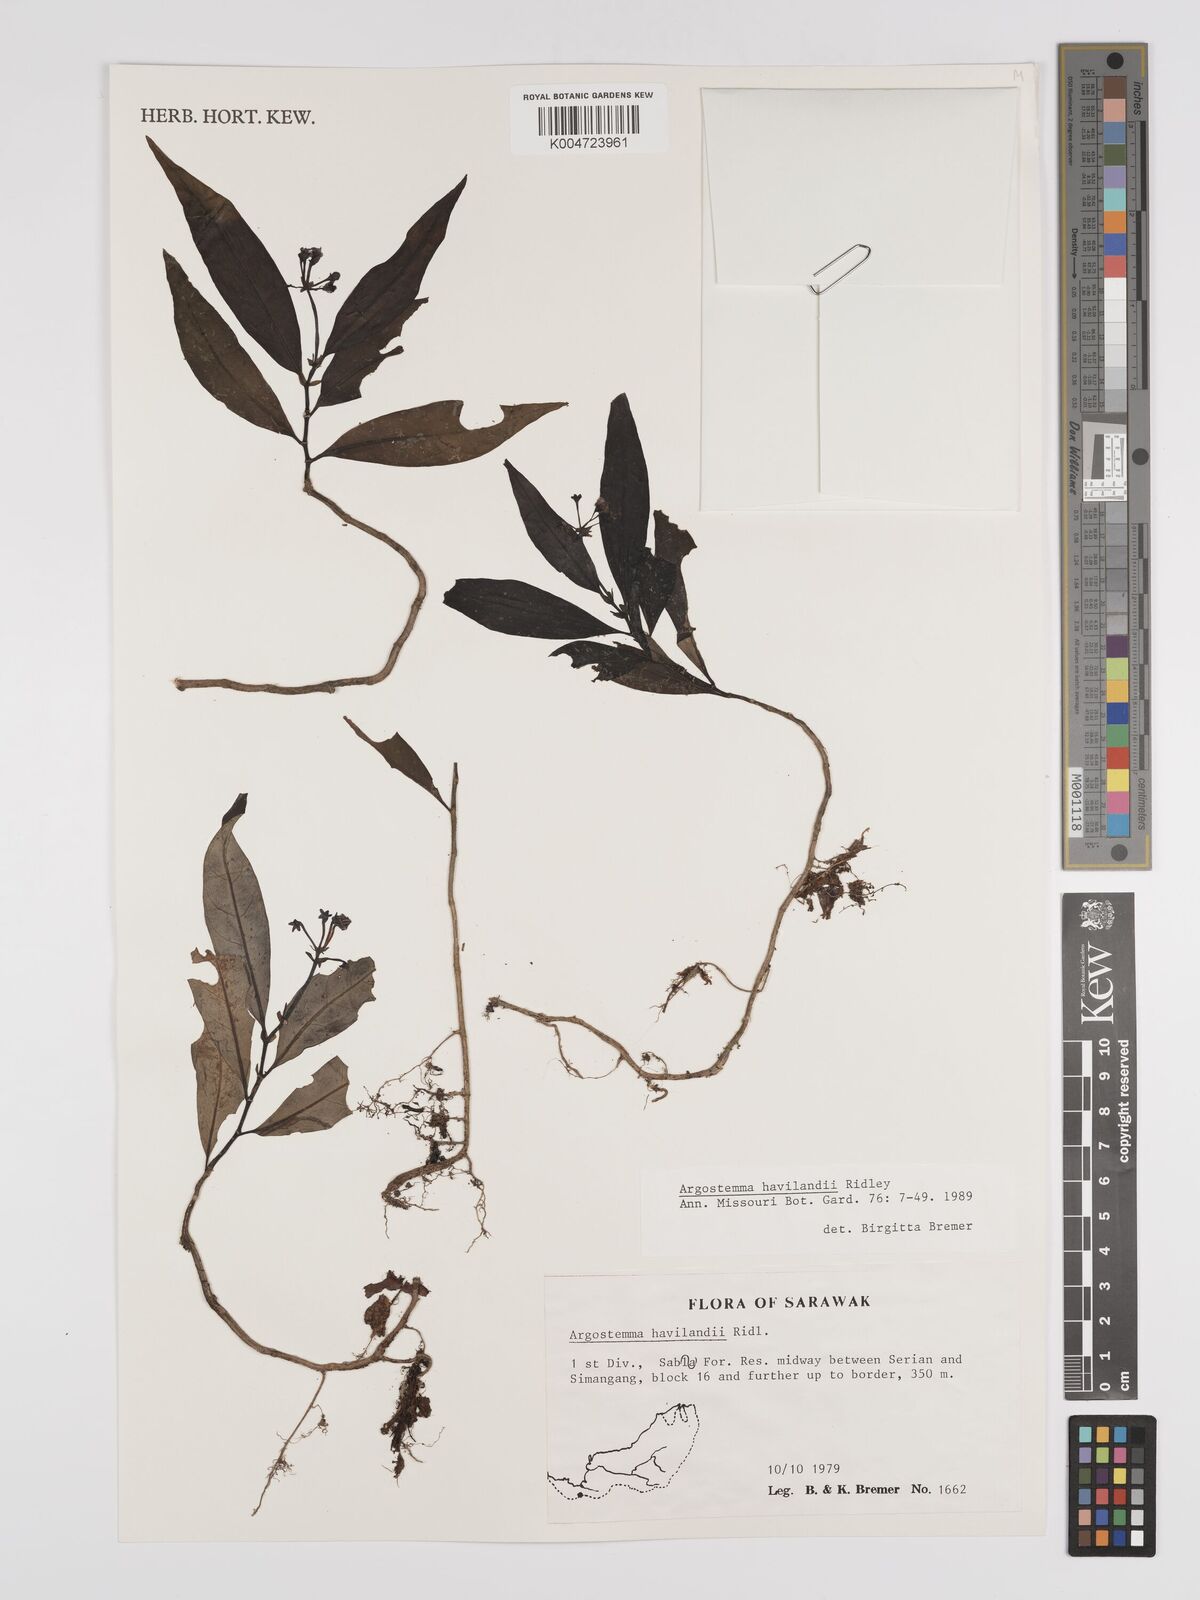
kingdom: Plantae
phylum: Tracheophyta
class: Magnoliopsida
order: Gentianales
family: Rubiaceae
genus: Argostemma
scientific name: Argostemma havilandii
